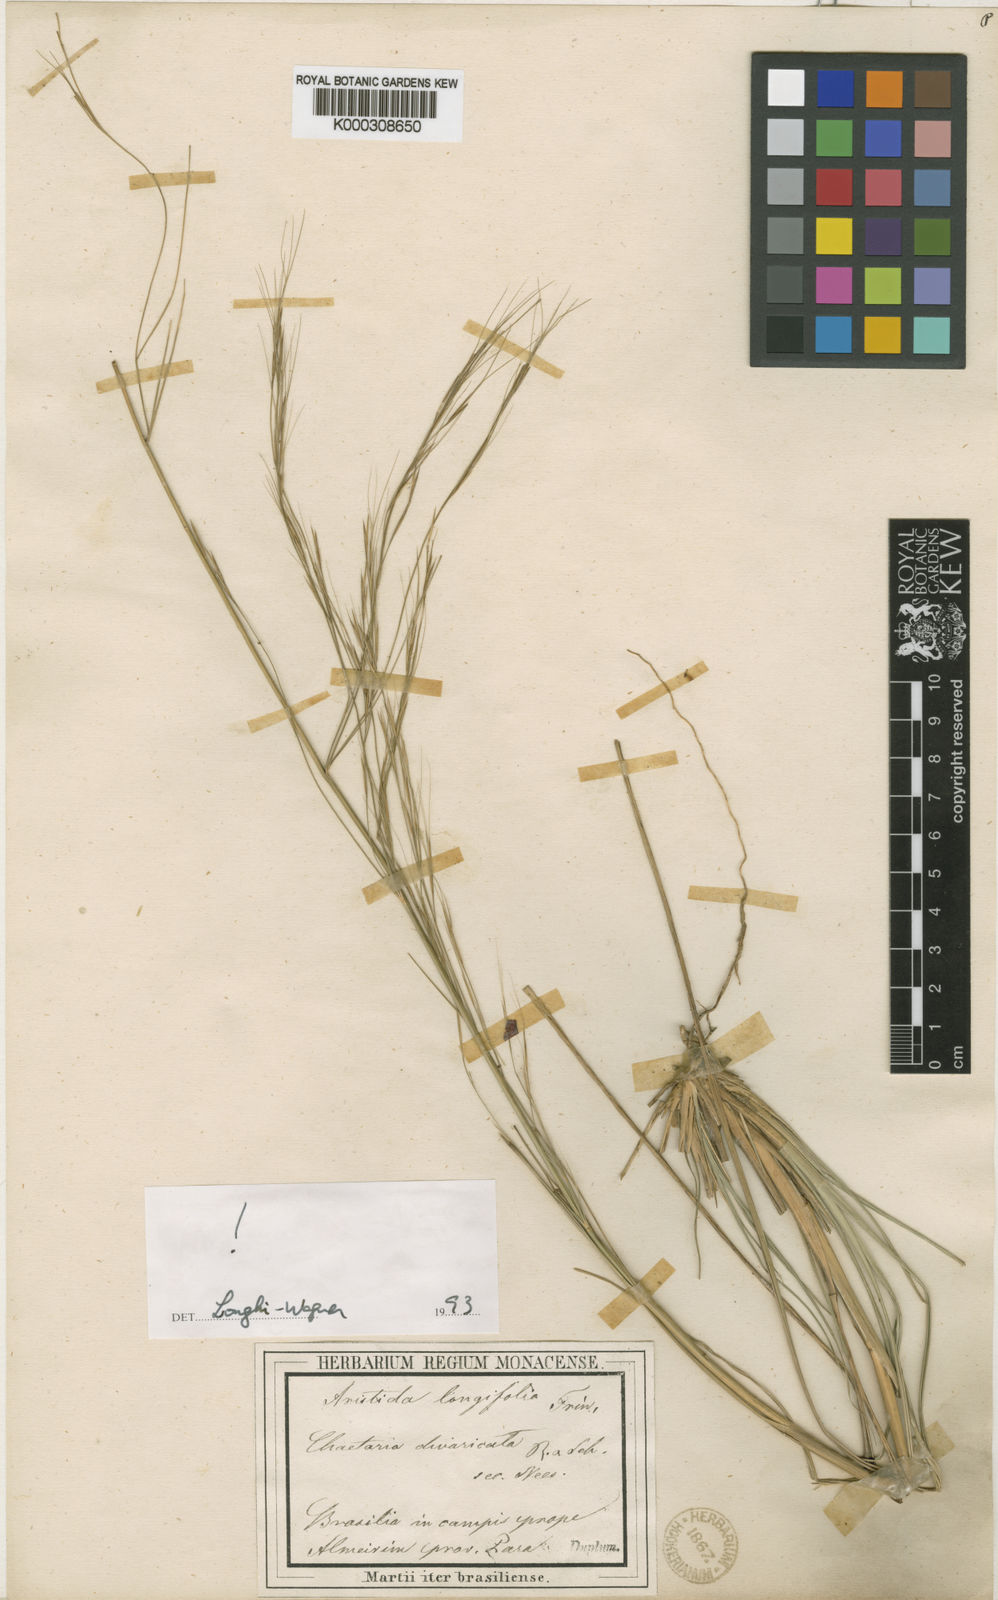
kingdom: Plantae
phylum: Tracheophyta
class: Liliopsida
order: Poales
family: Poaceae
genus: Aristida
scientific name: Aristida longifolia
